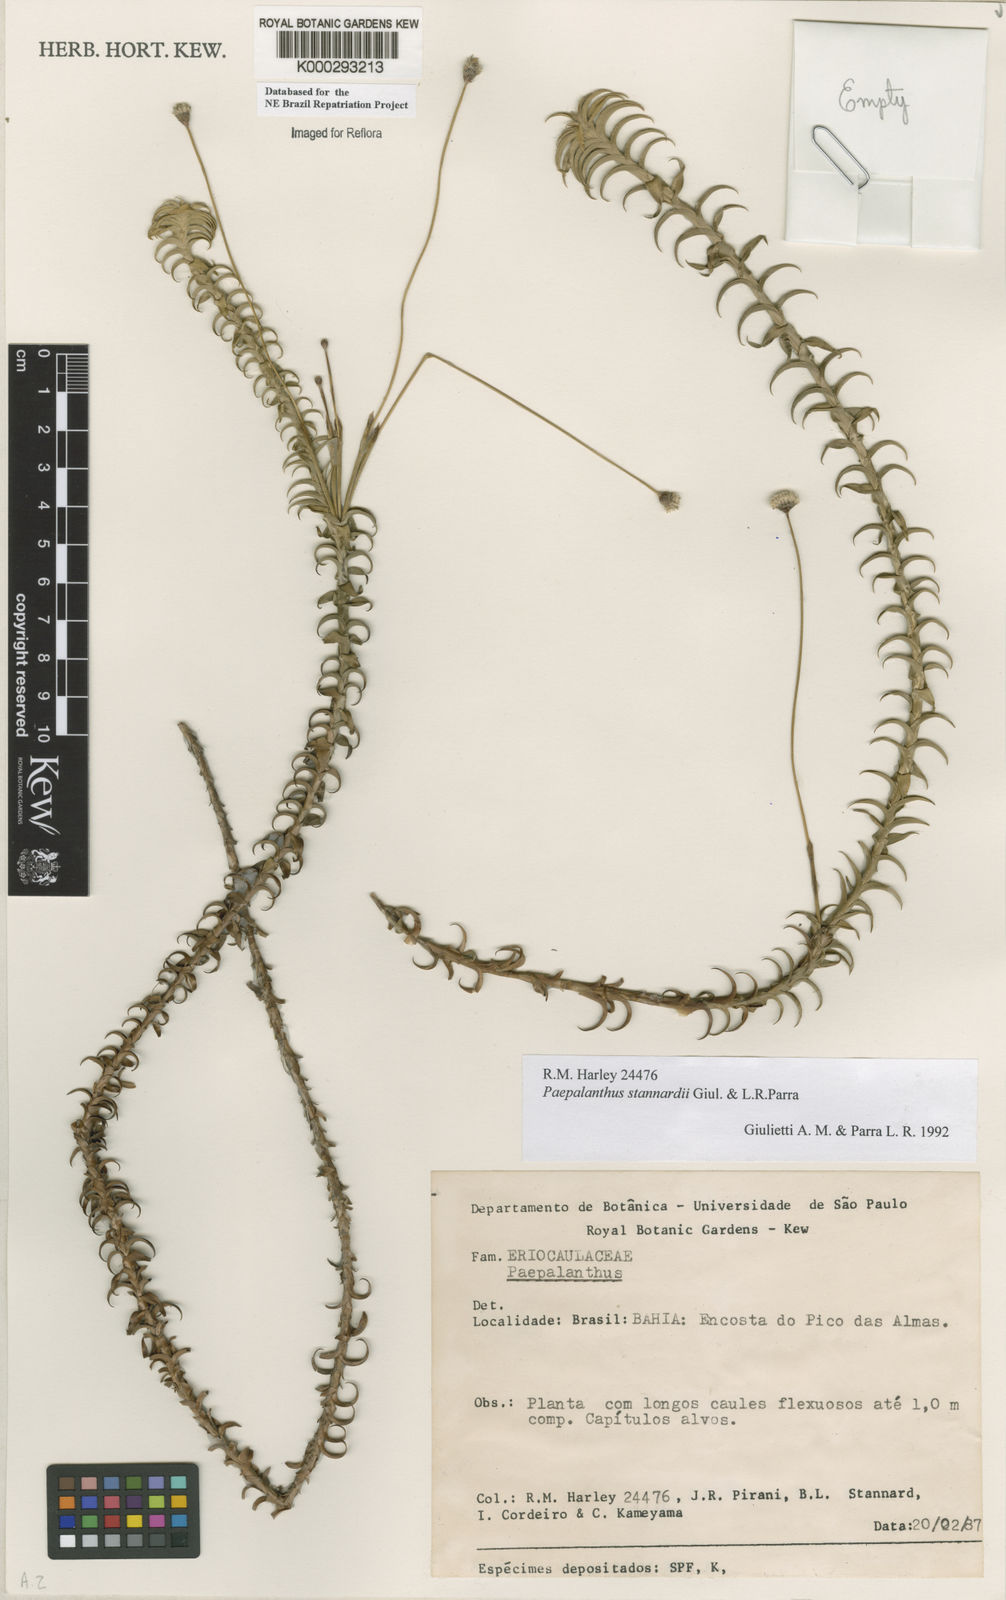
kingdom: Plantae
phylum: Tracheophyta
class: Liliopsida
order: Poales
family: Eriocaulaceae
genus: Paepalanthus
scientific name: Paepalanthus stannardii
